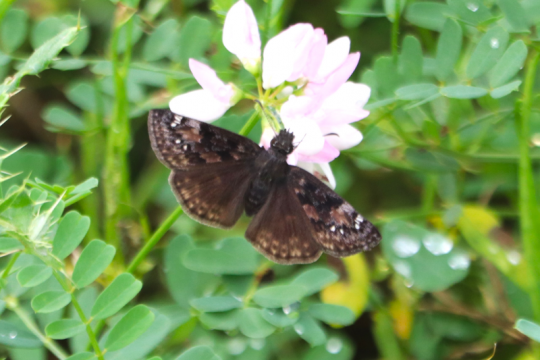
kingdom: Animalia
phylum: Arthropoda
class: Insecta
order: Lepidoptera
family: Hesperiidae
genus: Gesta
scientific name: Gesta
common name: Wild Indigo Duskywing
